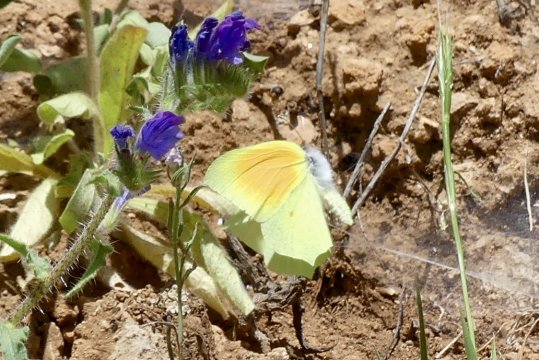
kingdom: Animalia
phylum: Arthropoda
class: Insecta
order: Lepidoptera
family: Pieridae
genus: Gonepteryx
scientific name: Gonepteryx cleopatra
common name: Cleopatra Butterfly
